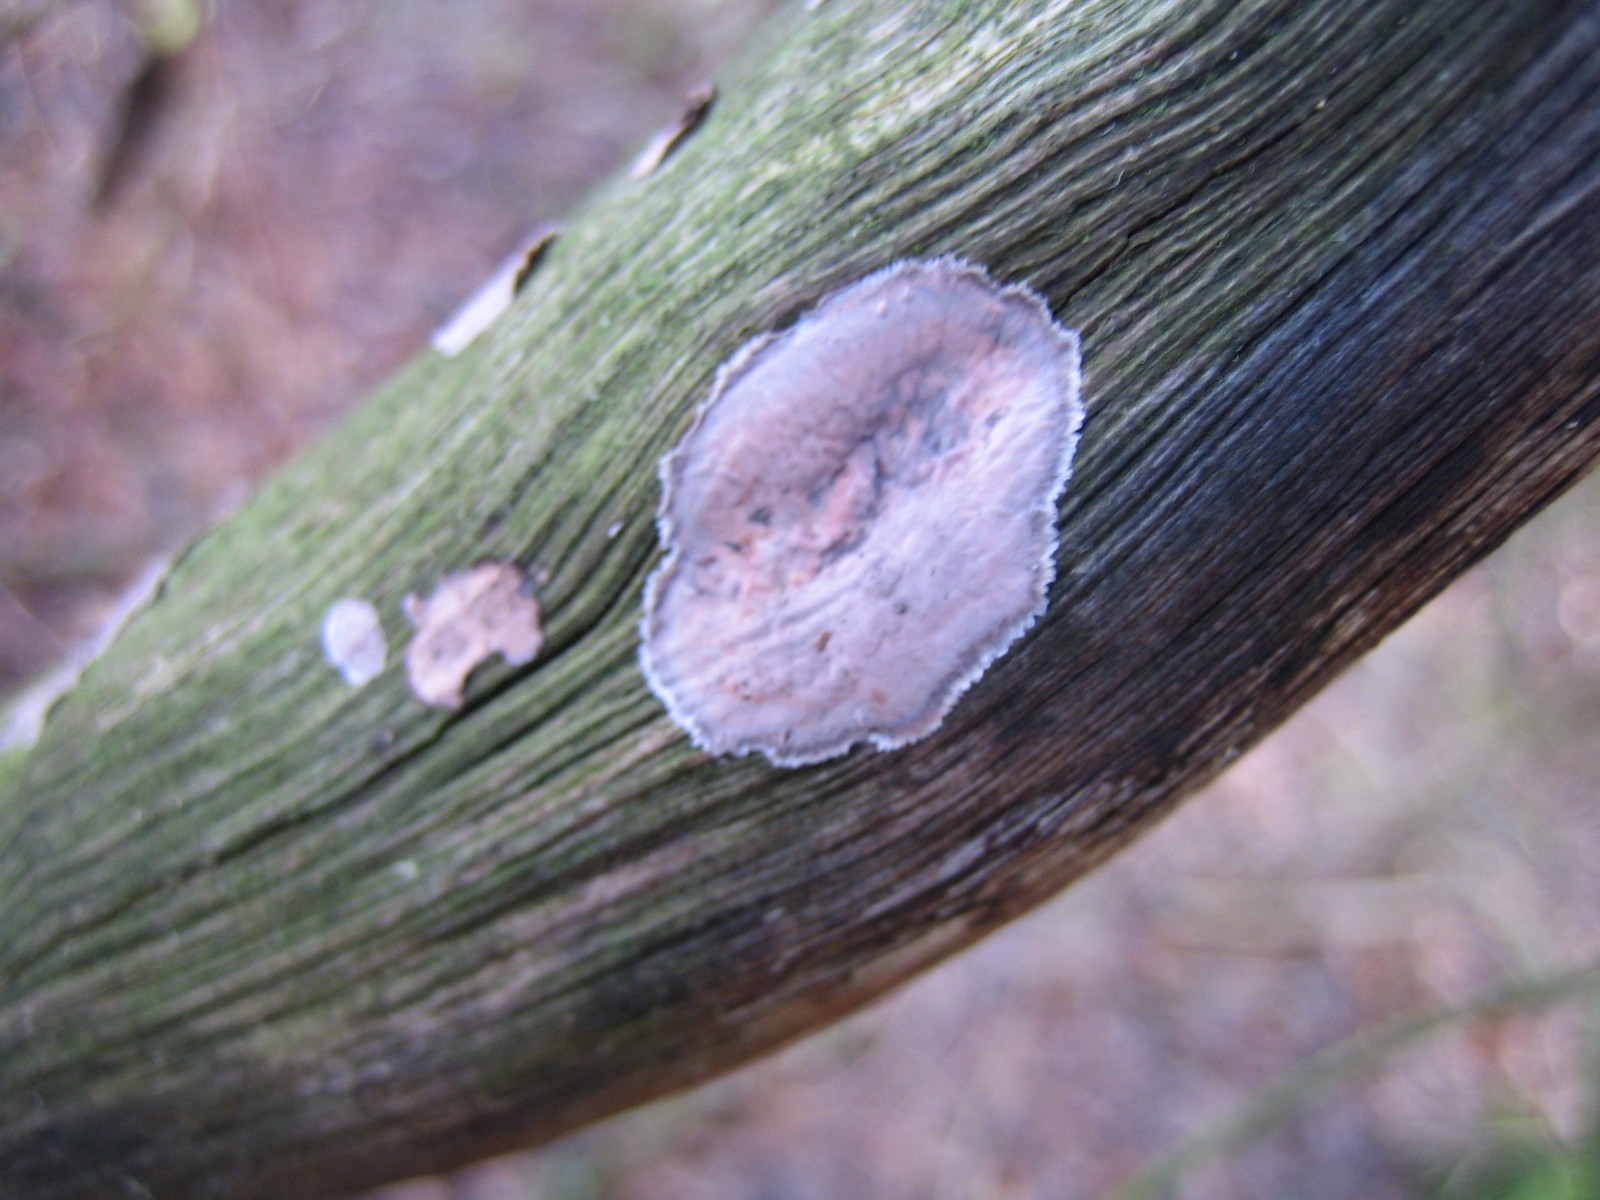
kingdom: Fungi
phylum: Basidiomycota
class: Agaricomycetes
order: Russulales
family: Peniophoraceae
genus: Peniophora
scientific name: Peniophora
